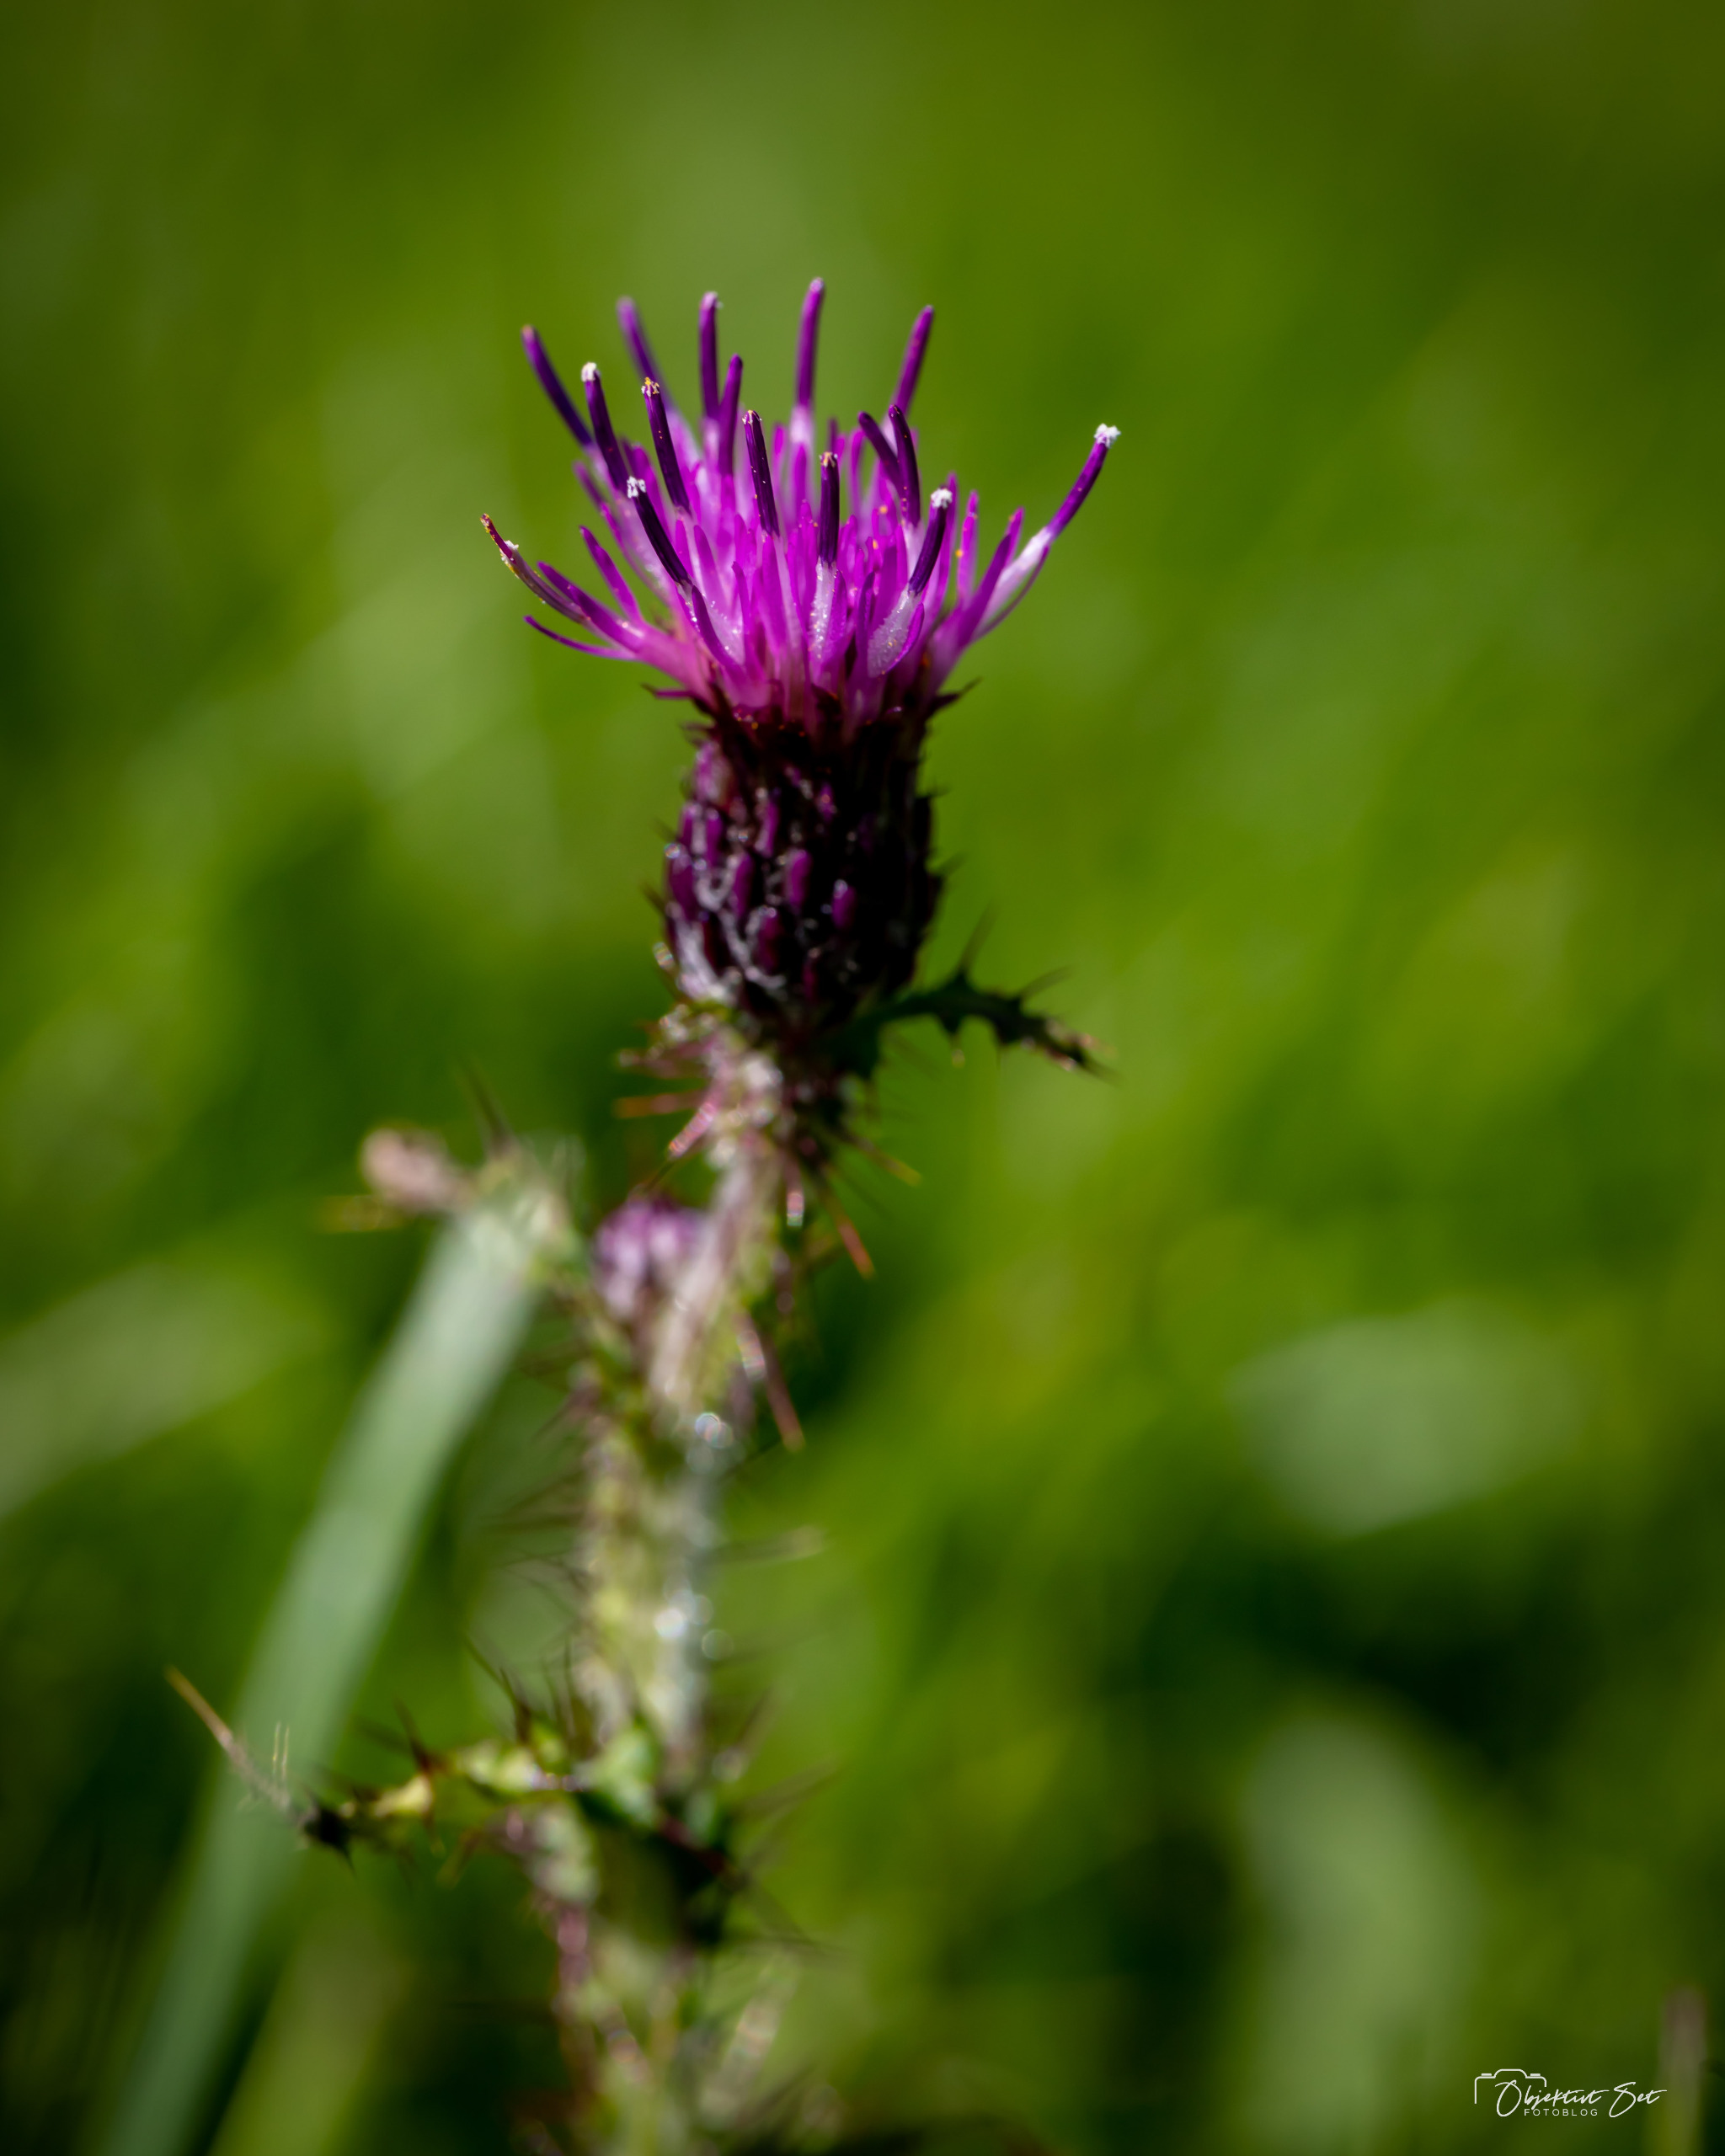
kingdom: Plantae
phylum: Tracheophyta
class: Magnoliopsida
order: Asterales
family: Asteraceae
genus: Cirsium
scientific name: Cirsium palustre
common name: Kær-tidsel
